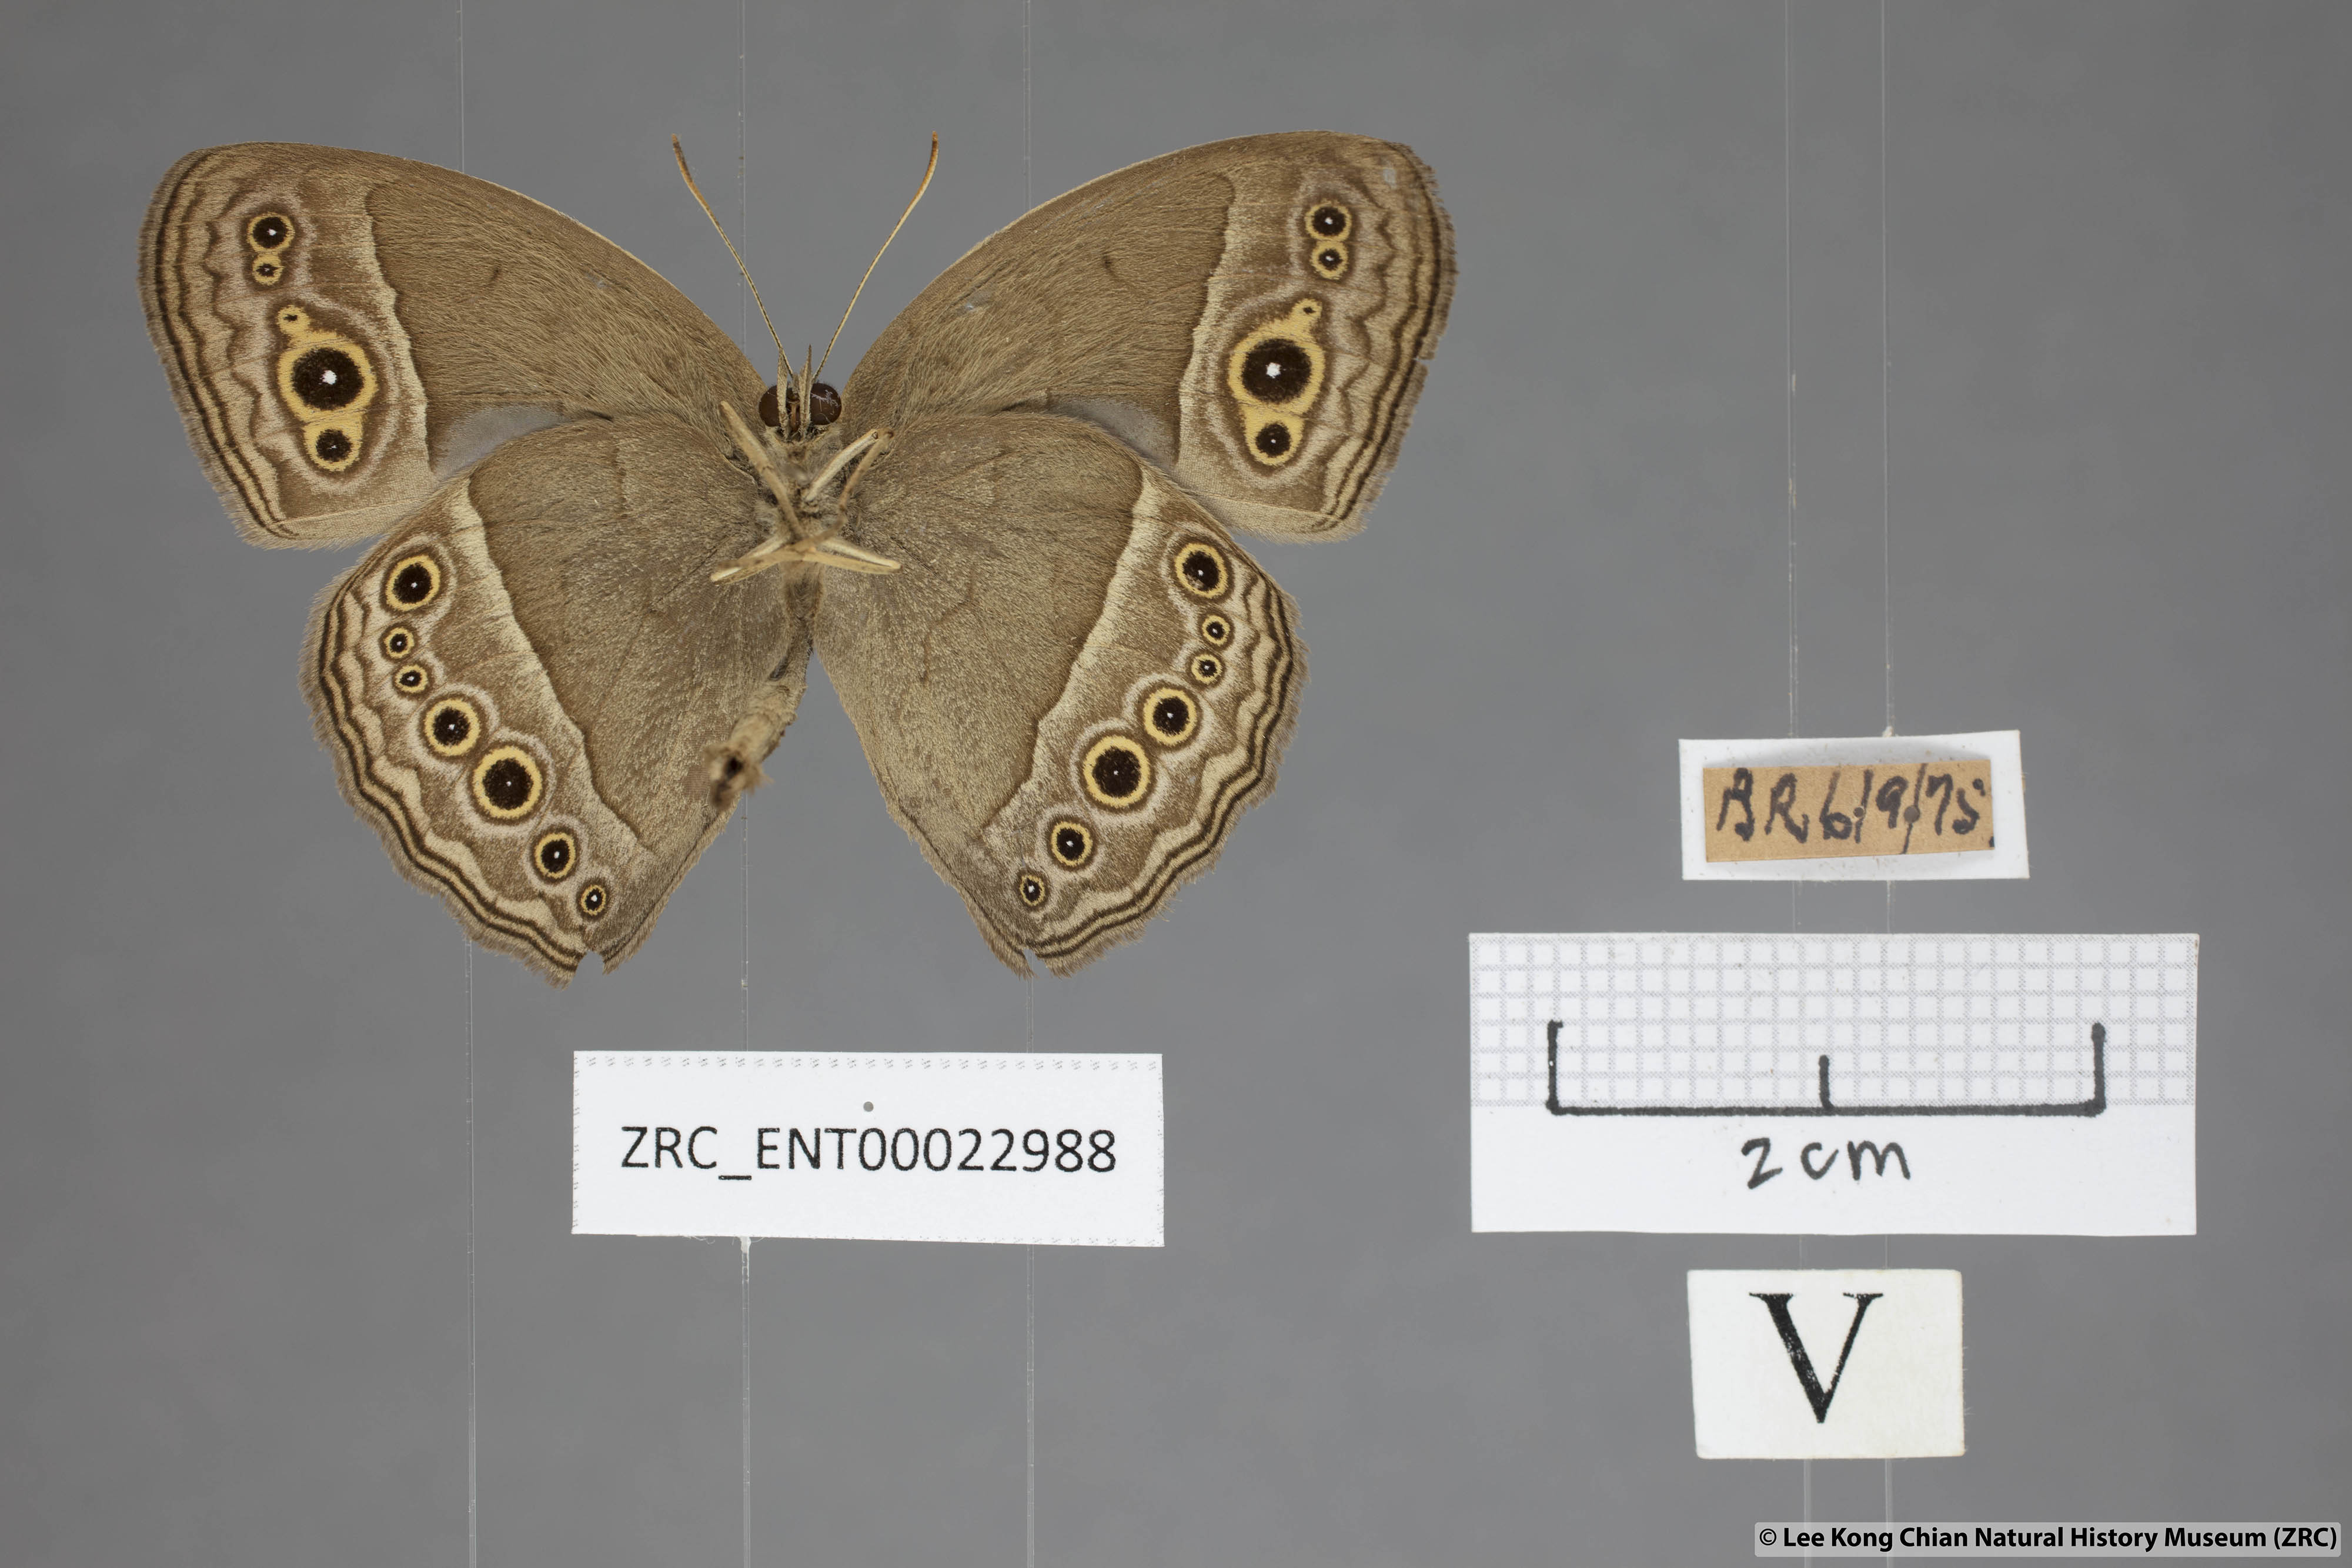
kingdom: Animalia
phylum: Arthropoda
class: Insecta
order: Lepidoptera
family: Nymphalidae
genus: Mycalesis
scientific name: Mycalesis perseoides
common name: Burmese bushbrown
